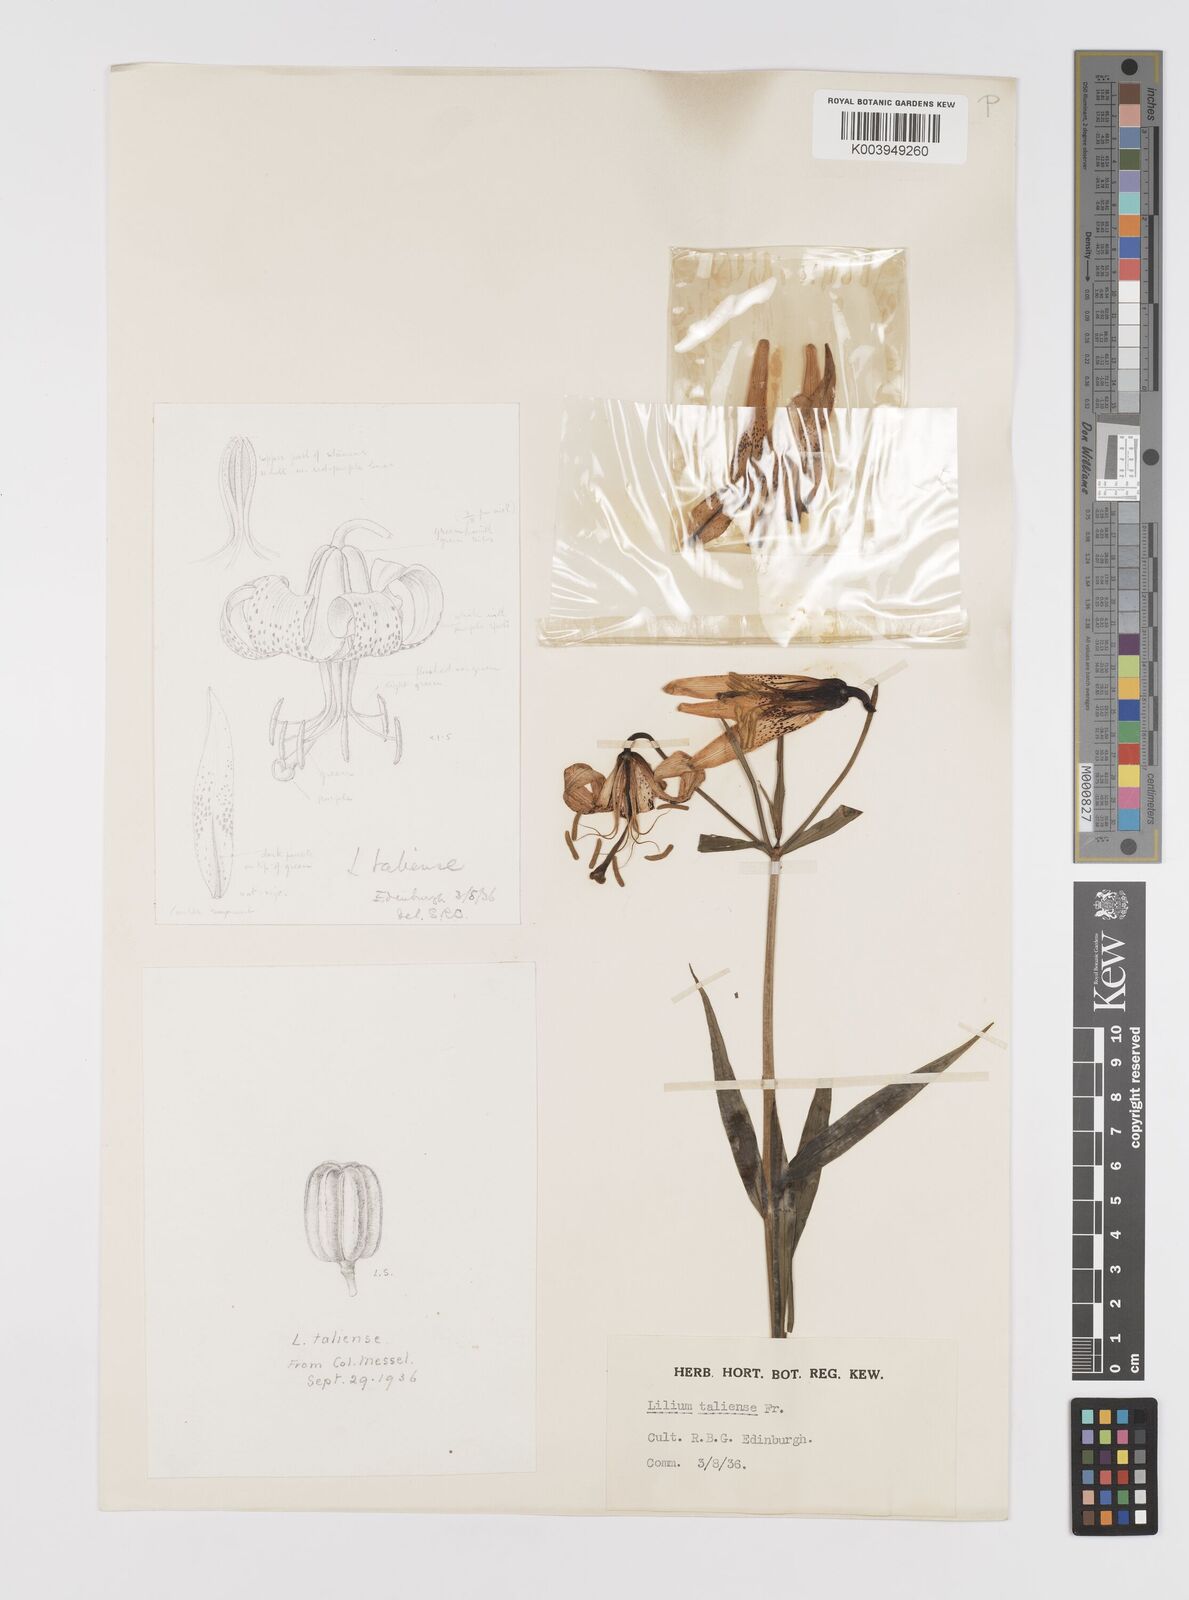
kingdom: Plantae
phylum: Tracheophyta
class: Liliopsida
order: Liliales
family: Liliaceae
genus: Lilium
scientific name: Lilium taliense
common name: Tali lily
